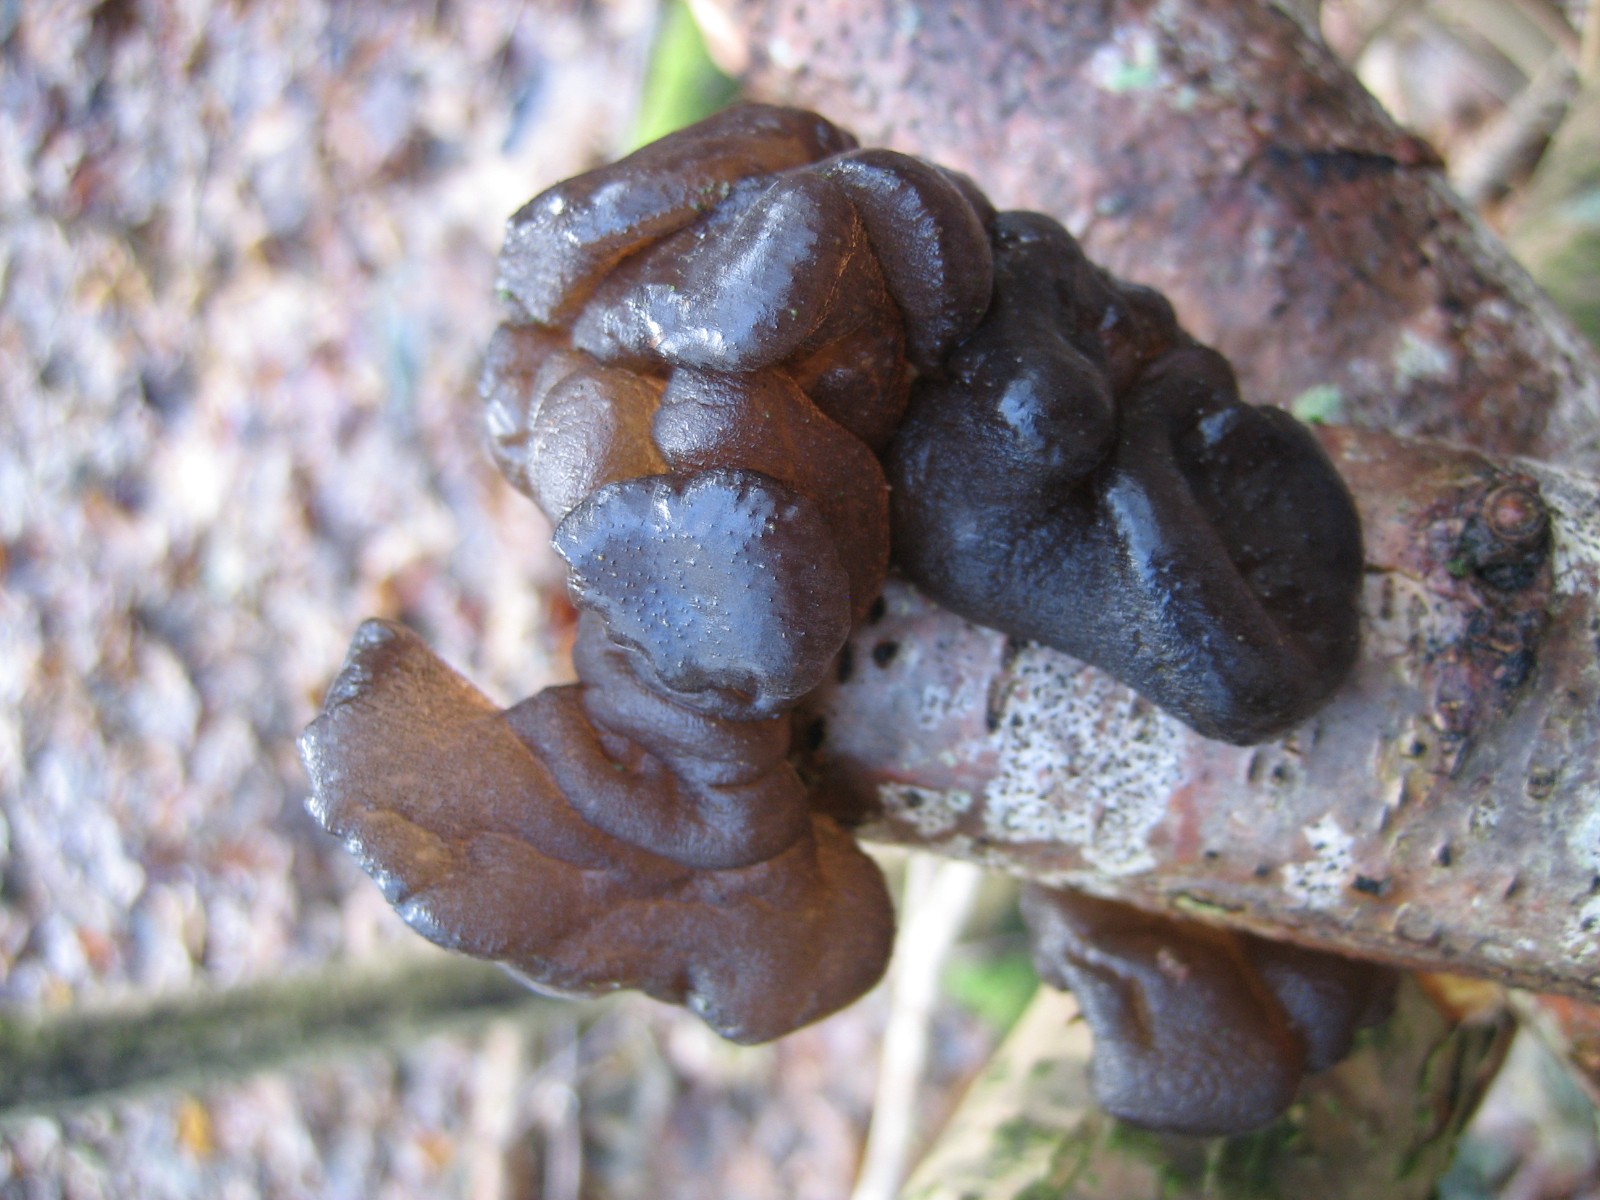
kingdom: Fungi
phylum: Basidiomycota
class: Agaricomycetes
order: Auriculariales
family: Auriculariaceae
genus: Exidia
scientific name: Exidia glandulosa
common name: ege-bævretop
